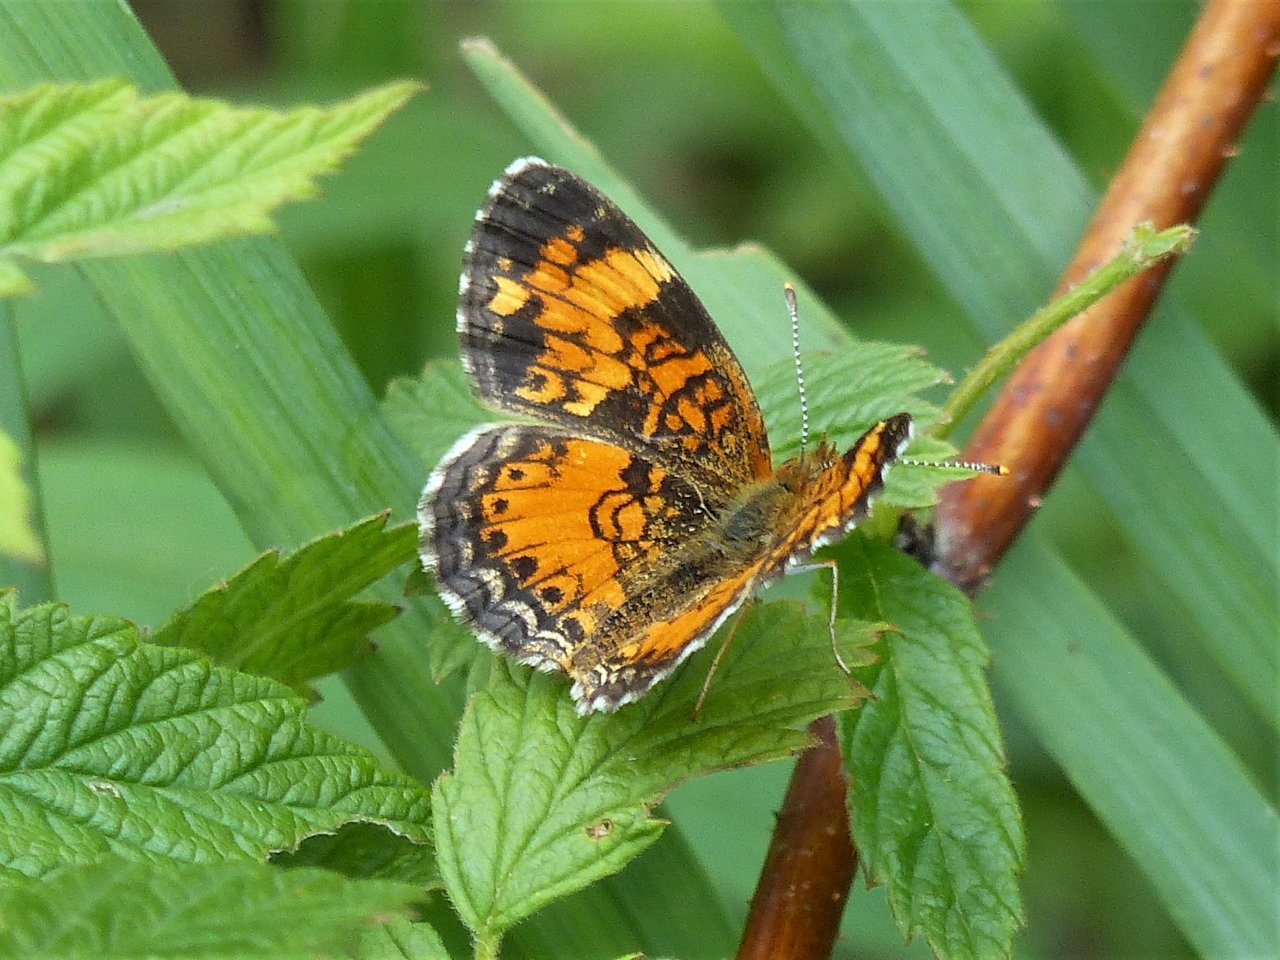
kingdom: Animalia
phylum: Arthropoda
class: Insecta
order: Lepidoptera
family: Nymphalidae
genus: Phyciodes
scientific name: Phyciodes tharos
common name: Northern Crescent
